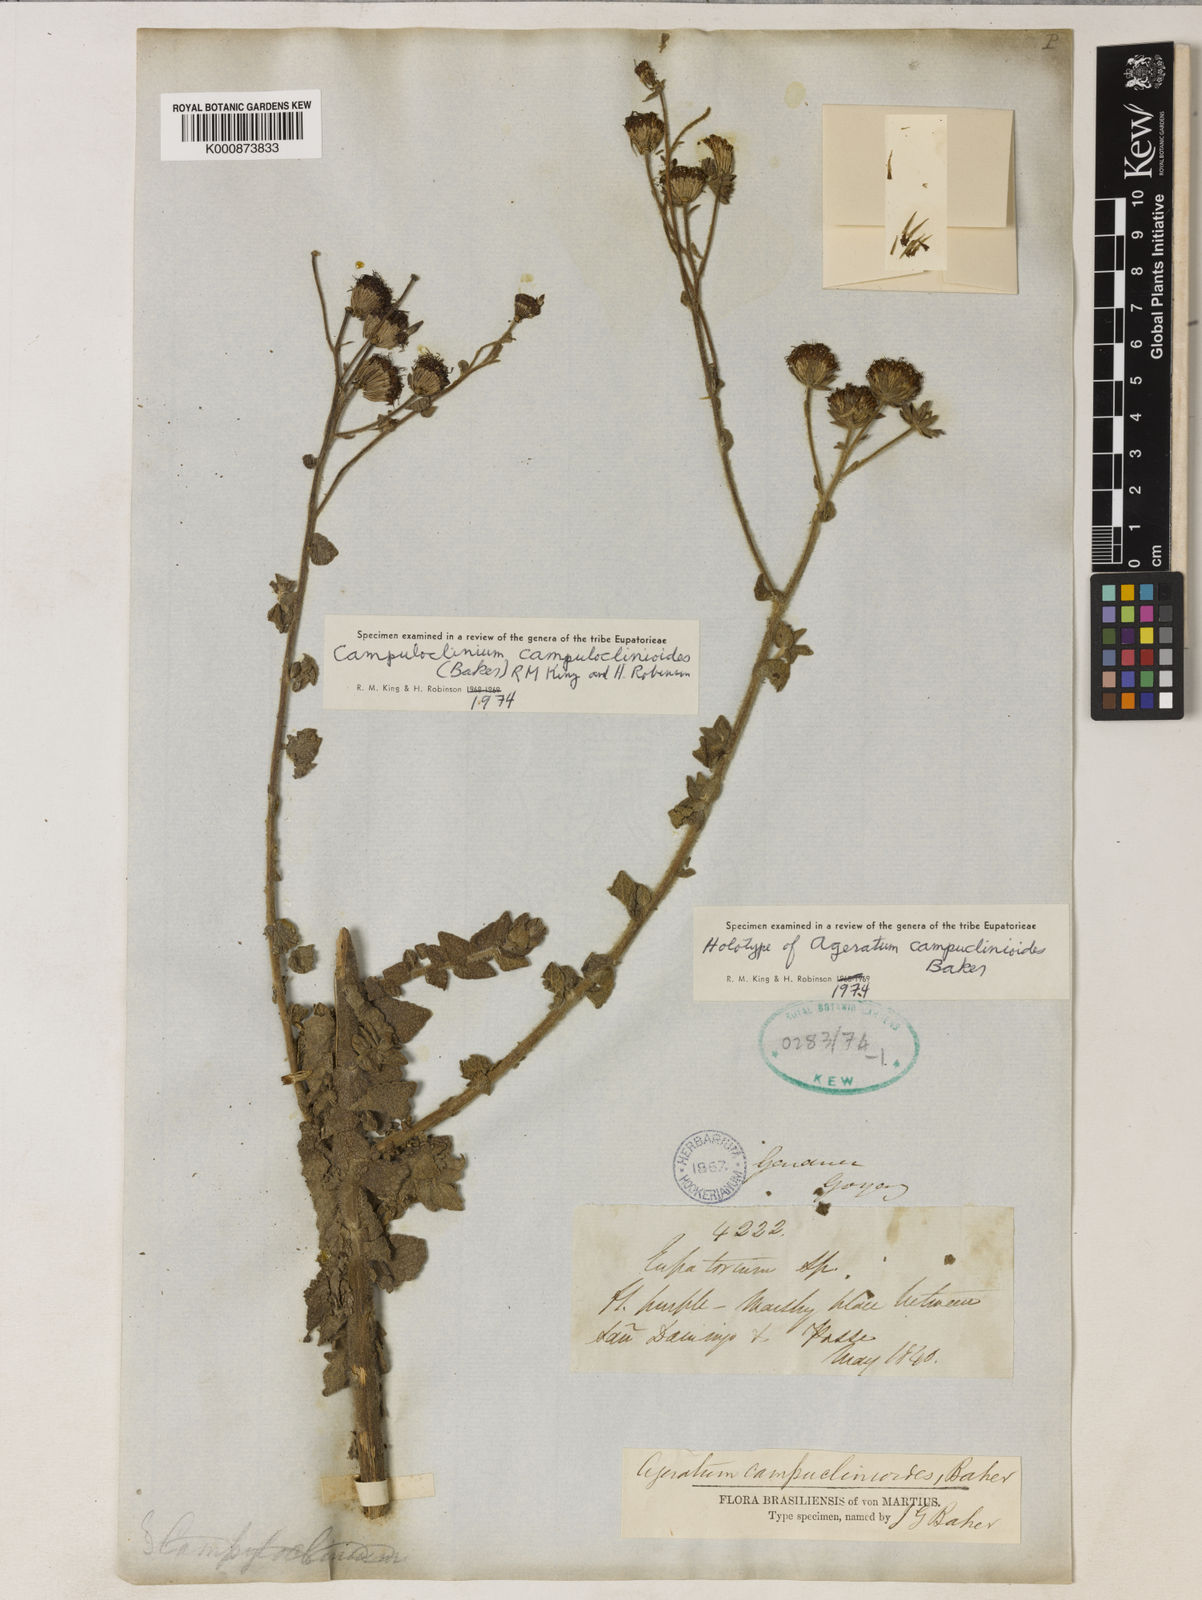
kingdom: Plantae
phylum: Tracheophyta
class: Magnoliopsida
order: Asterales
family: Asteraceae
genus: Campuloclinium
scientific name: Campuloclinium campuloclinioides
